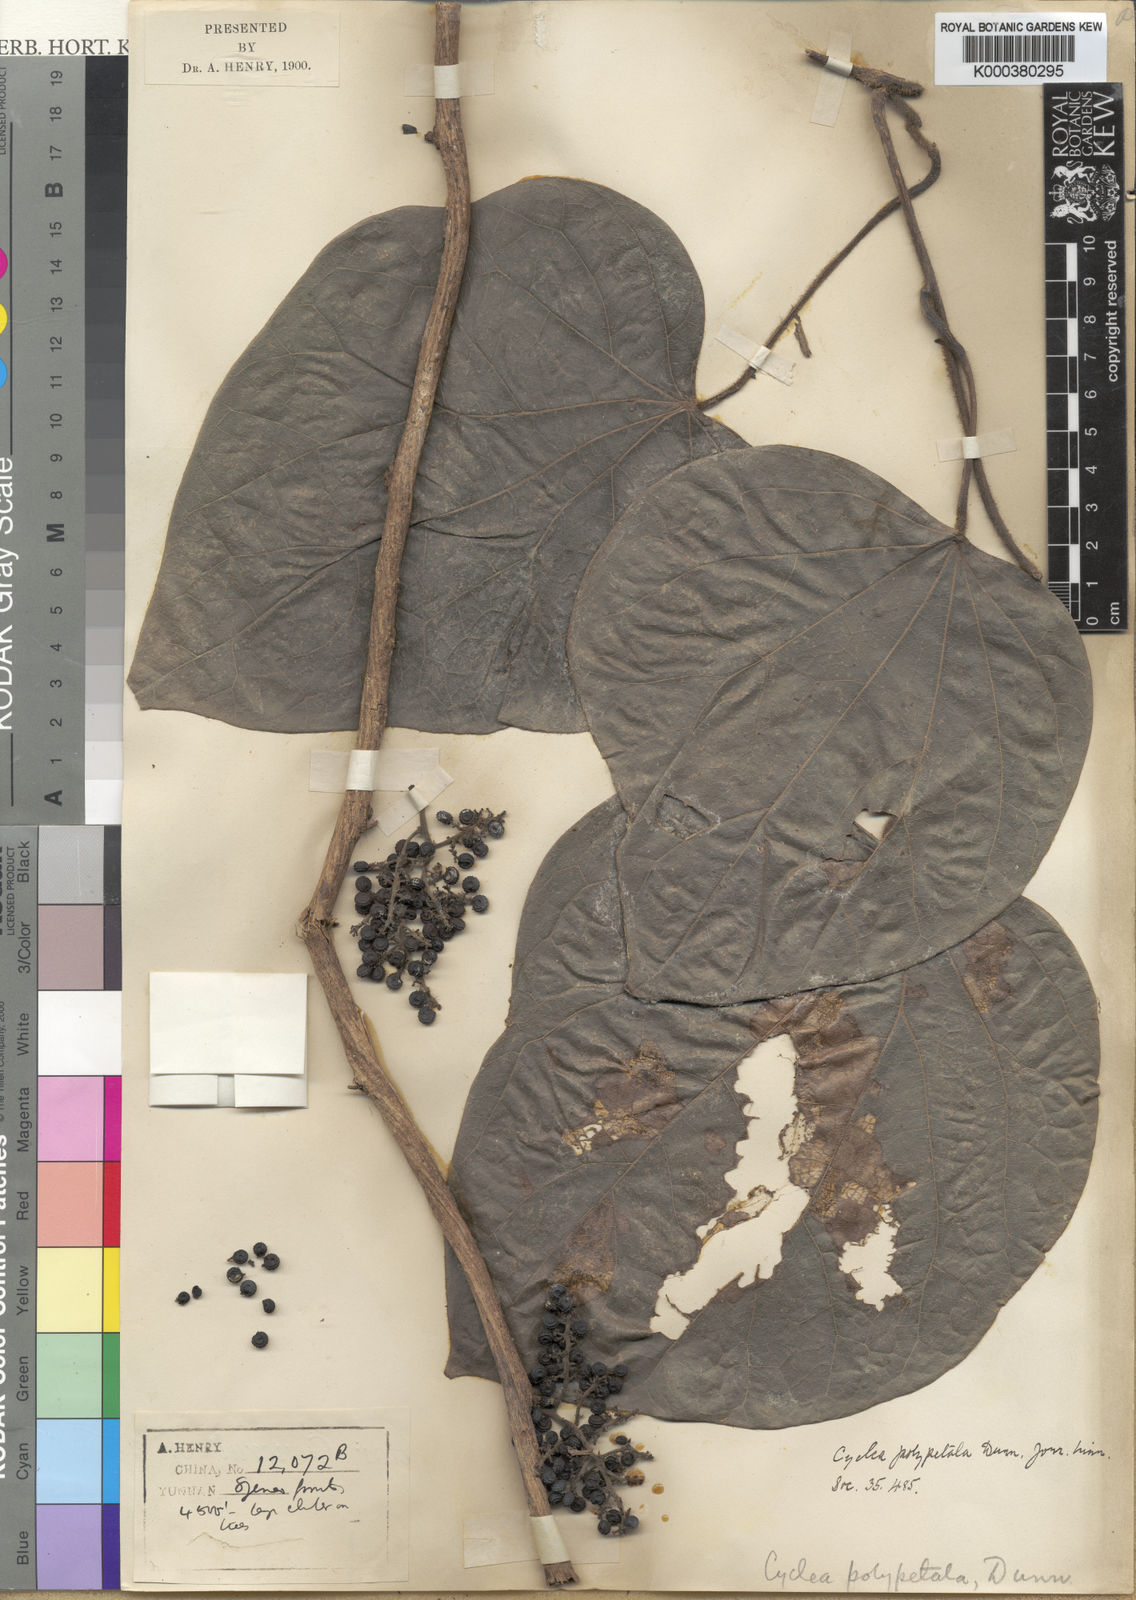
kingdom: Plantae
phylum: Tracheophyta
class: Magnoliopsida
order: Ranunculales
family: Menispermaceae
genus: Cyclea
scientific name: Cyclea polypetala
